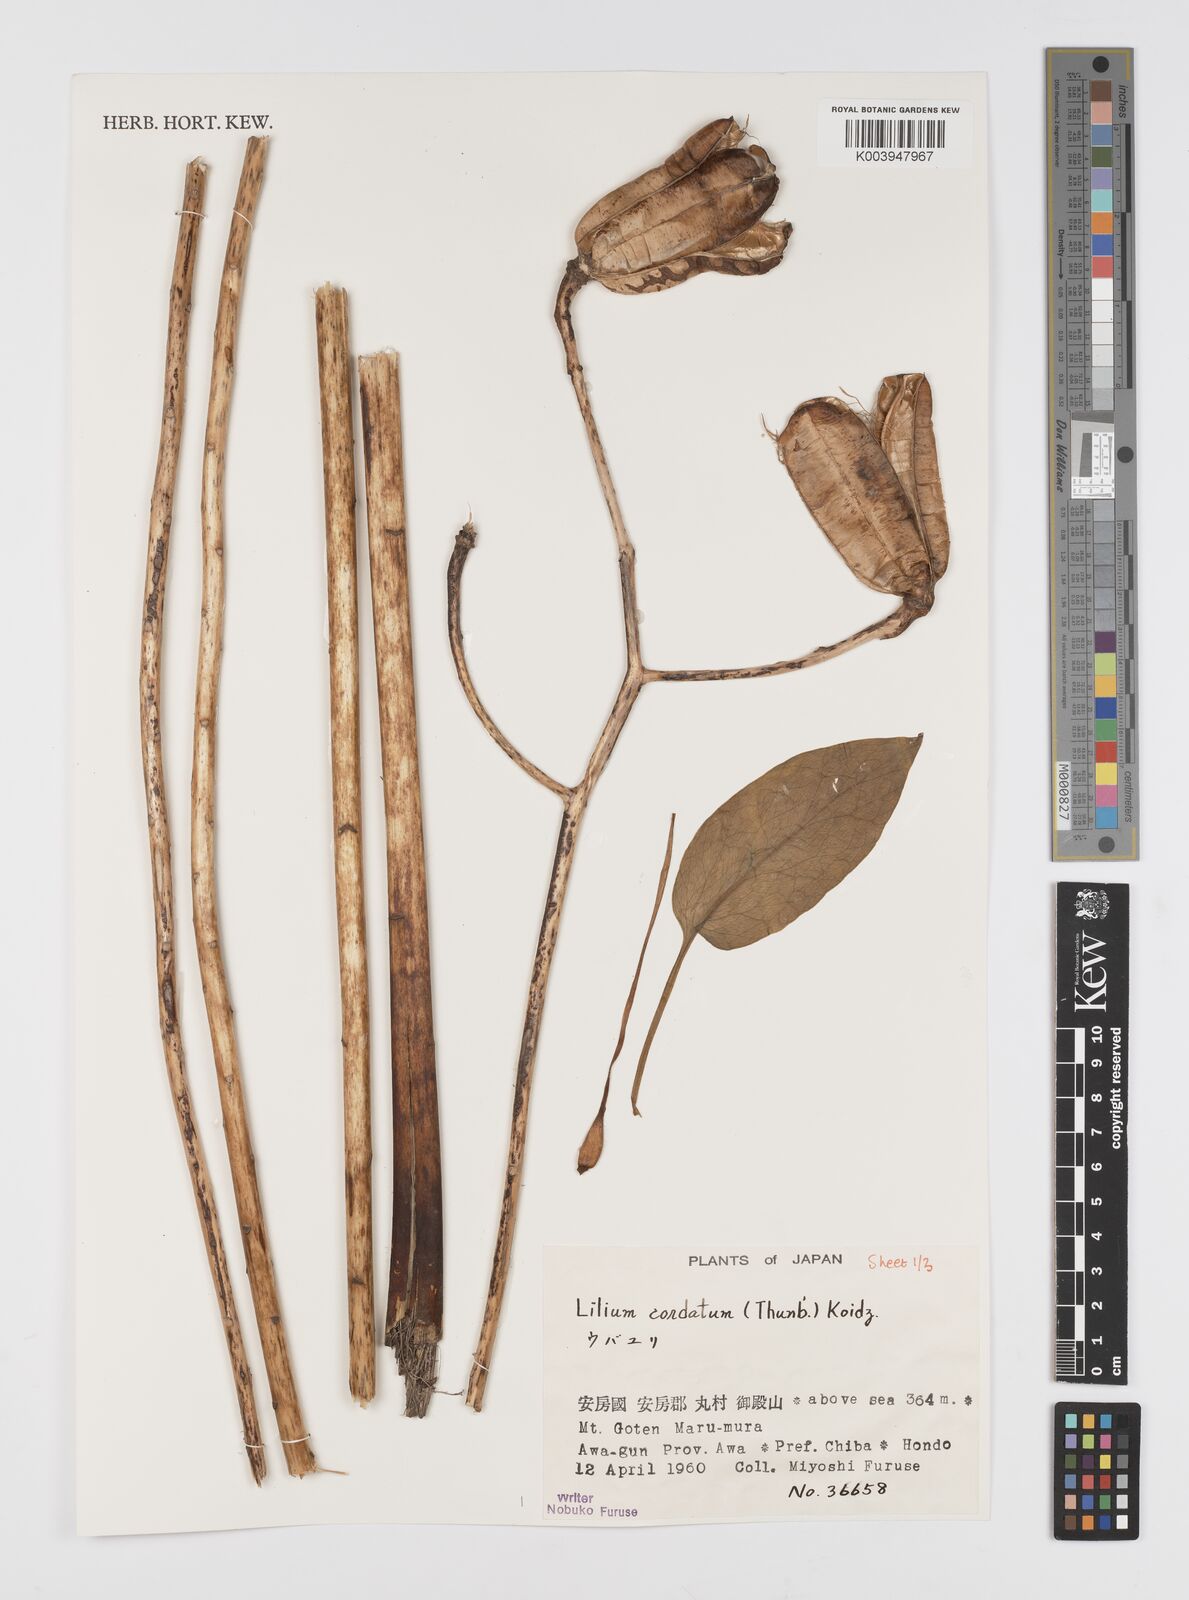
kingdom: Plantae
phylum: Tracheophyta
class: Liliopsida
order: Liliales
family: Liliaceae
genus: Cardiocrinum
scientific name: Cardiocrinum cordatum
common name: Lily
